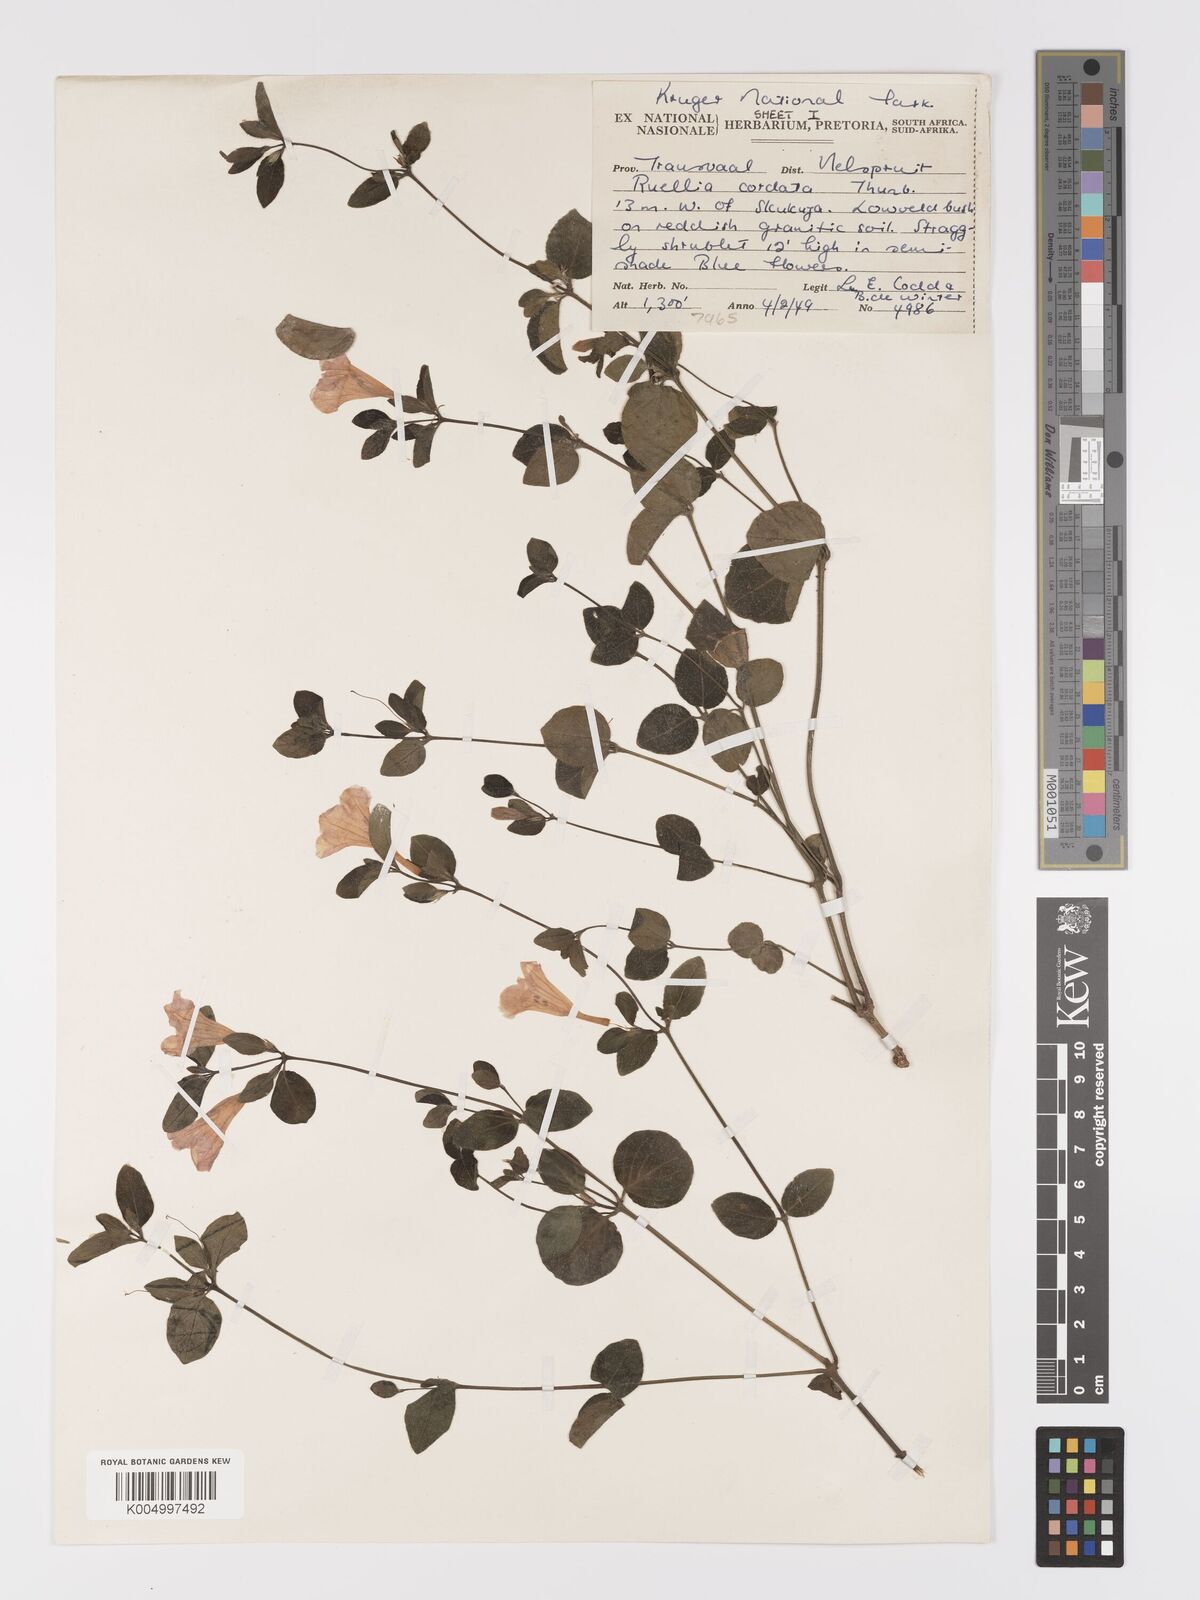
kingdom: Plantae
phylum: Tracheophyta
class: Magnoliopsida
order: Lamiales
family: Acanthaceae
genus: Ruellia
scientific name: Ruellia cordata
